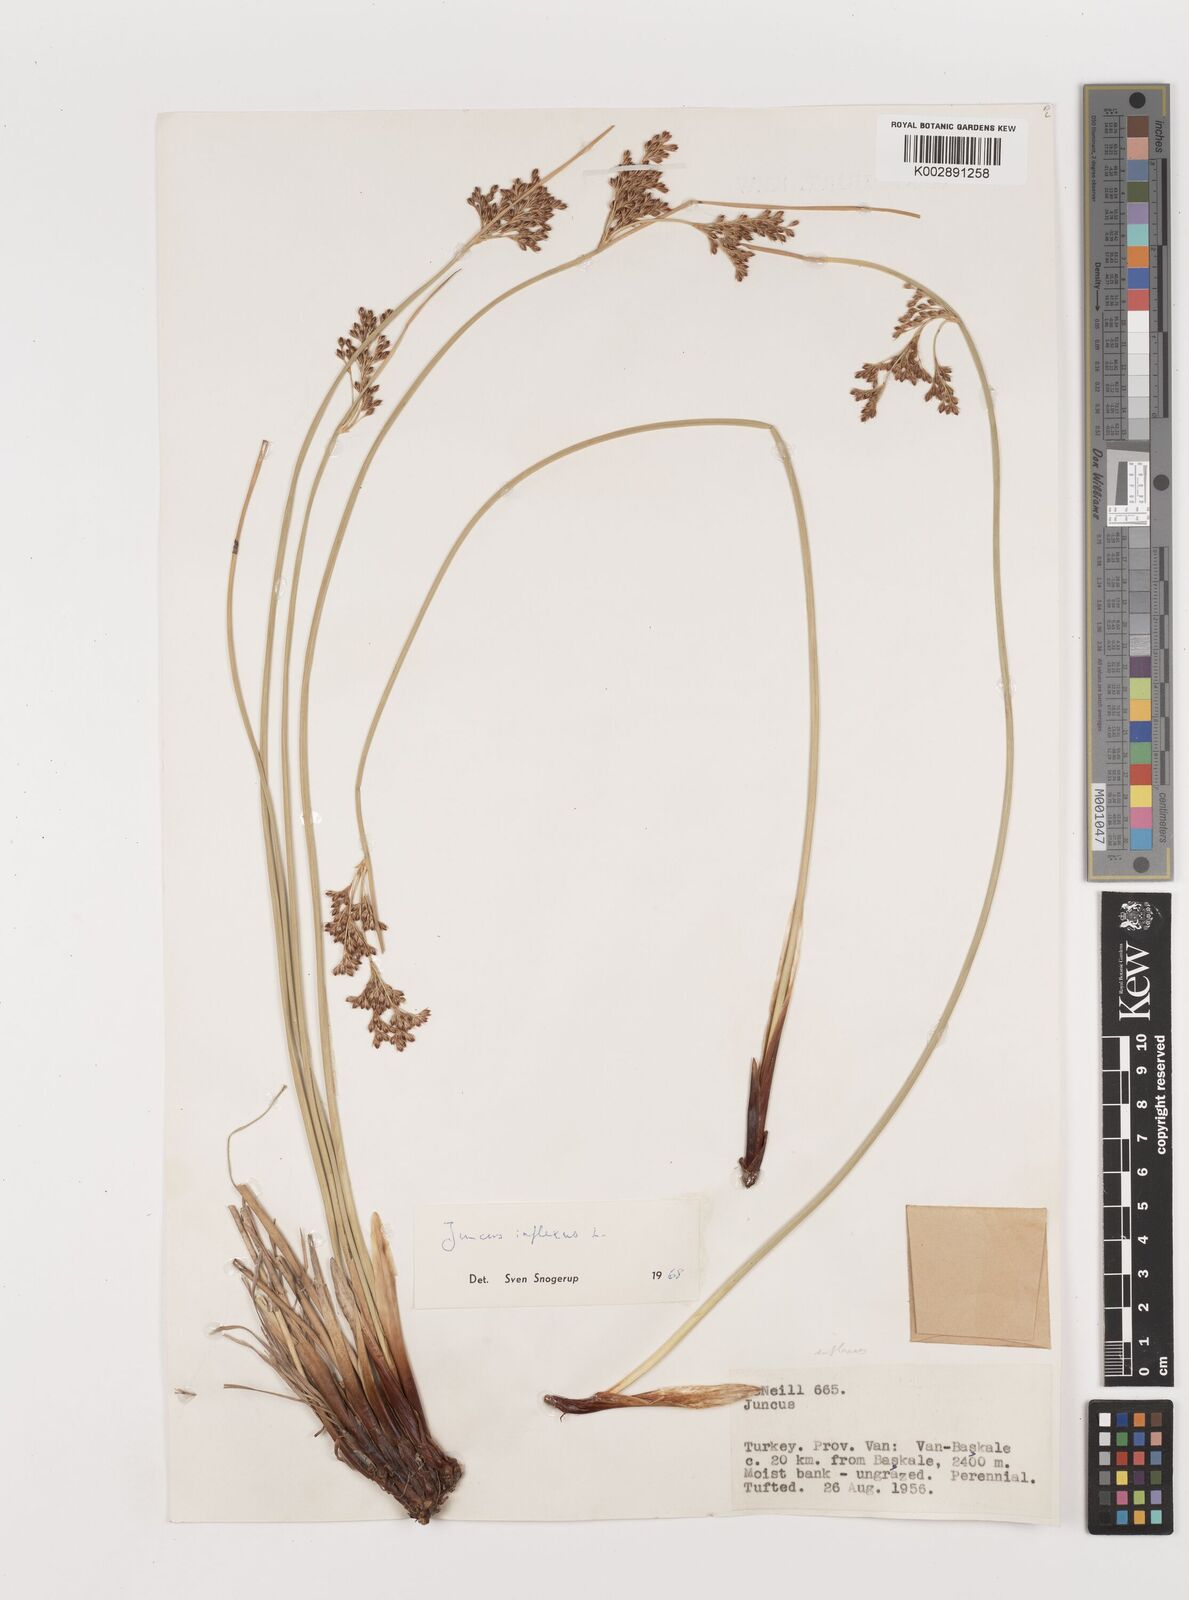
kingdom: Plantae
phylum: Tracheophyta
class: Liliopsida
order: Poales
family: Juncaceae
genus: Juncus
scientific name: Juncus inflexus
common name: Hard rush
